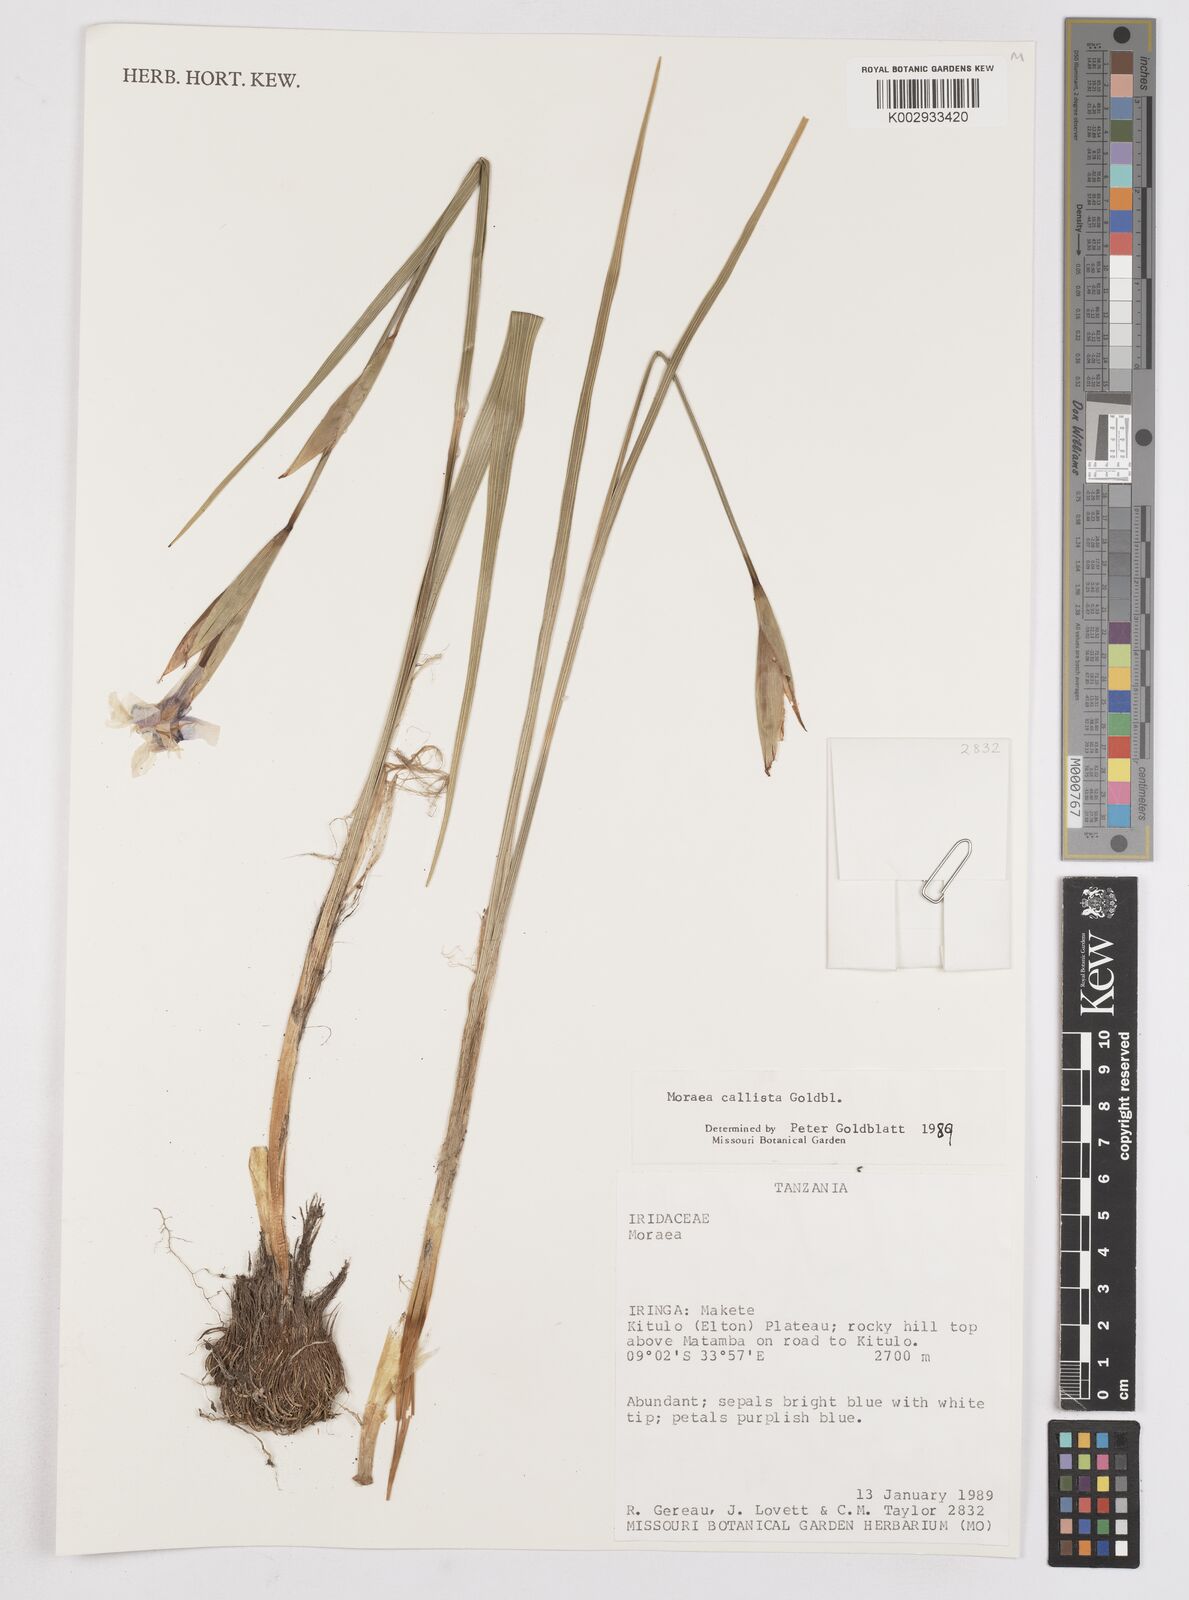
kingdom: Plantae
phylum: Tracheophyta
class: Liliopsida
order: Asparagales
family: Iridaceae
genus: Moraea
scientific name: Moraea callista
